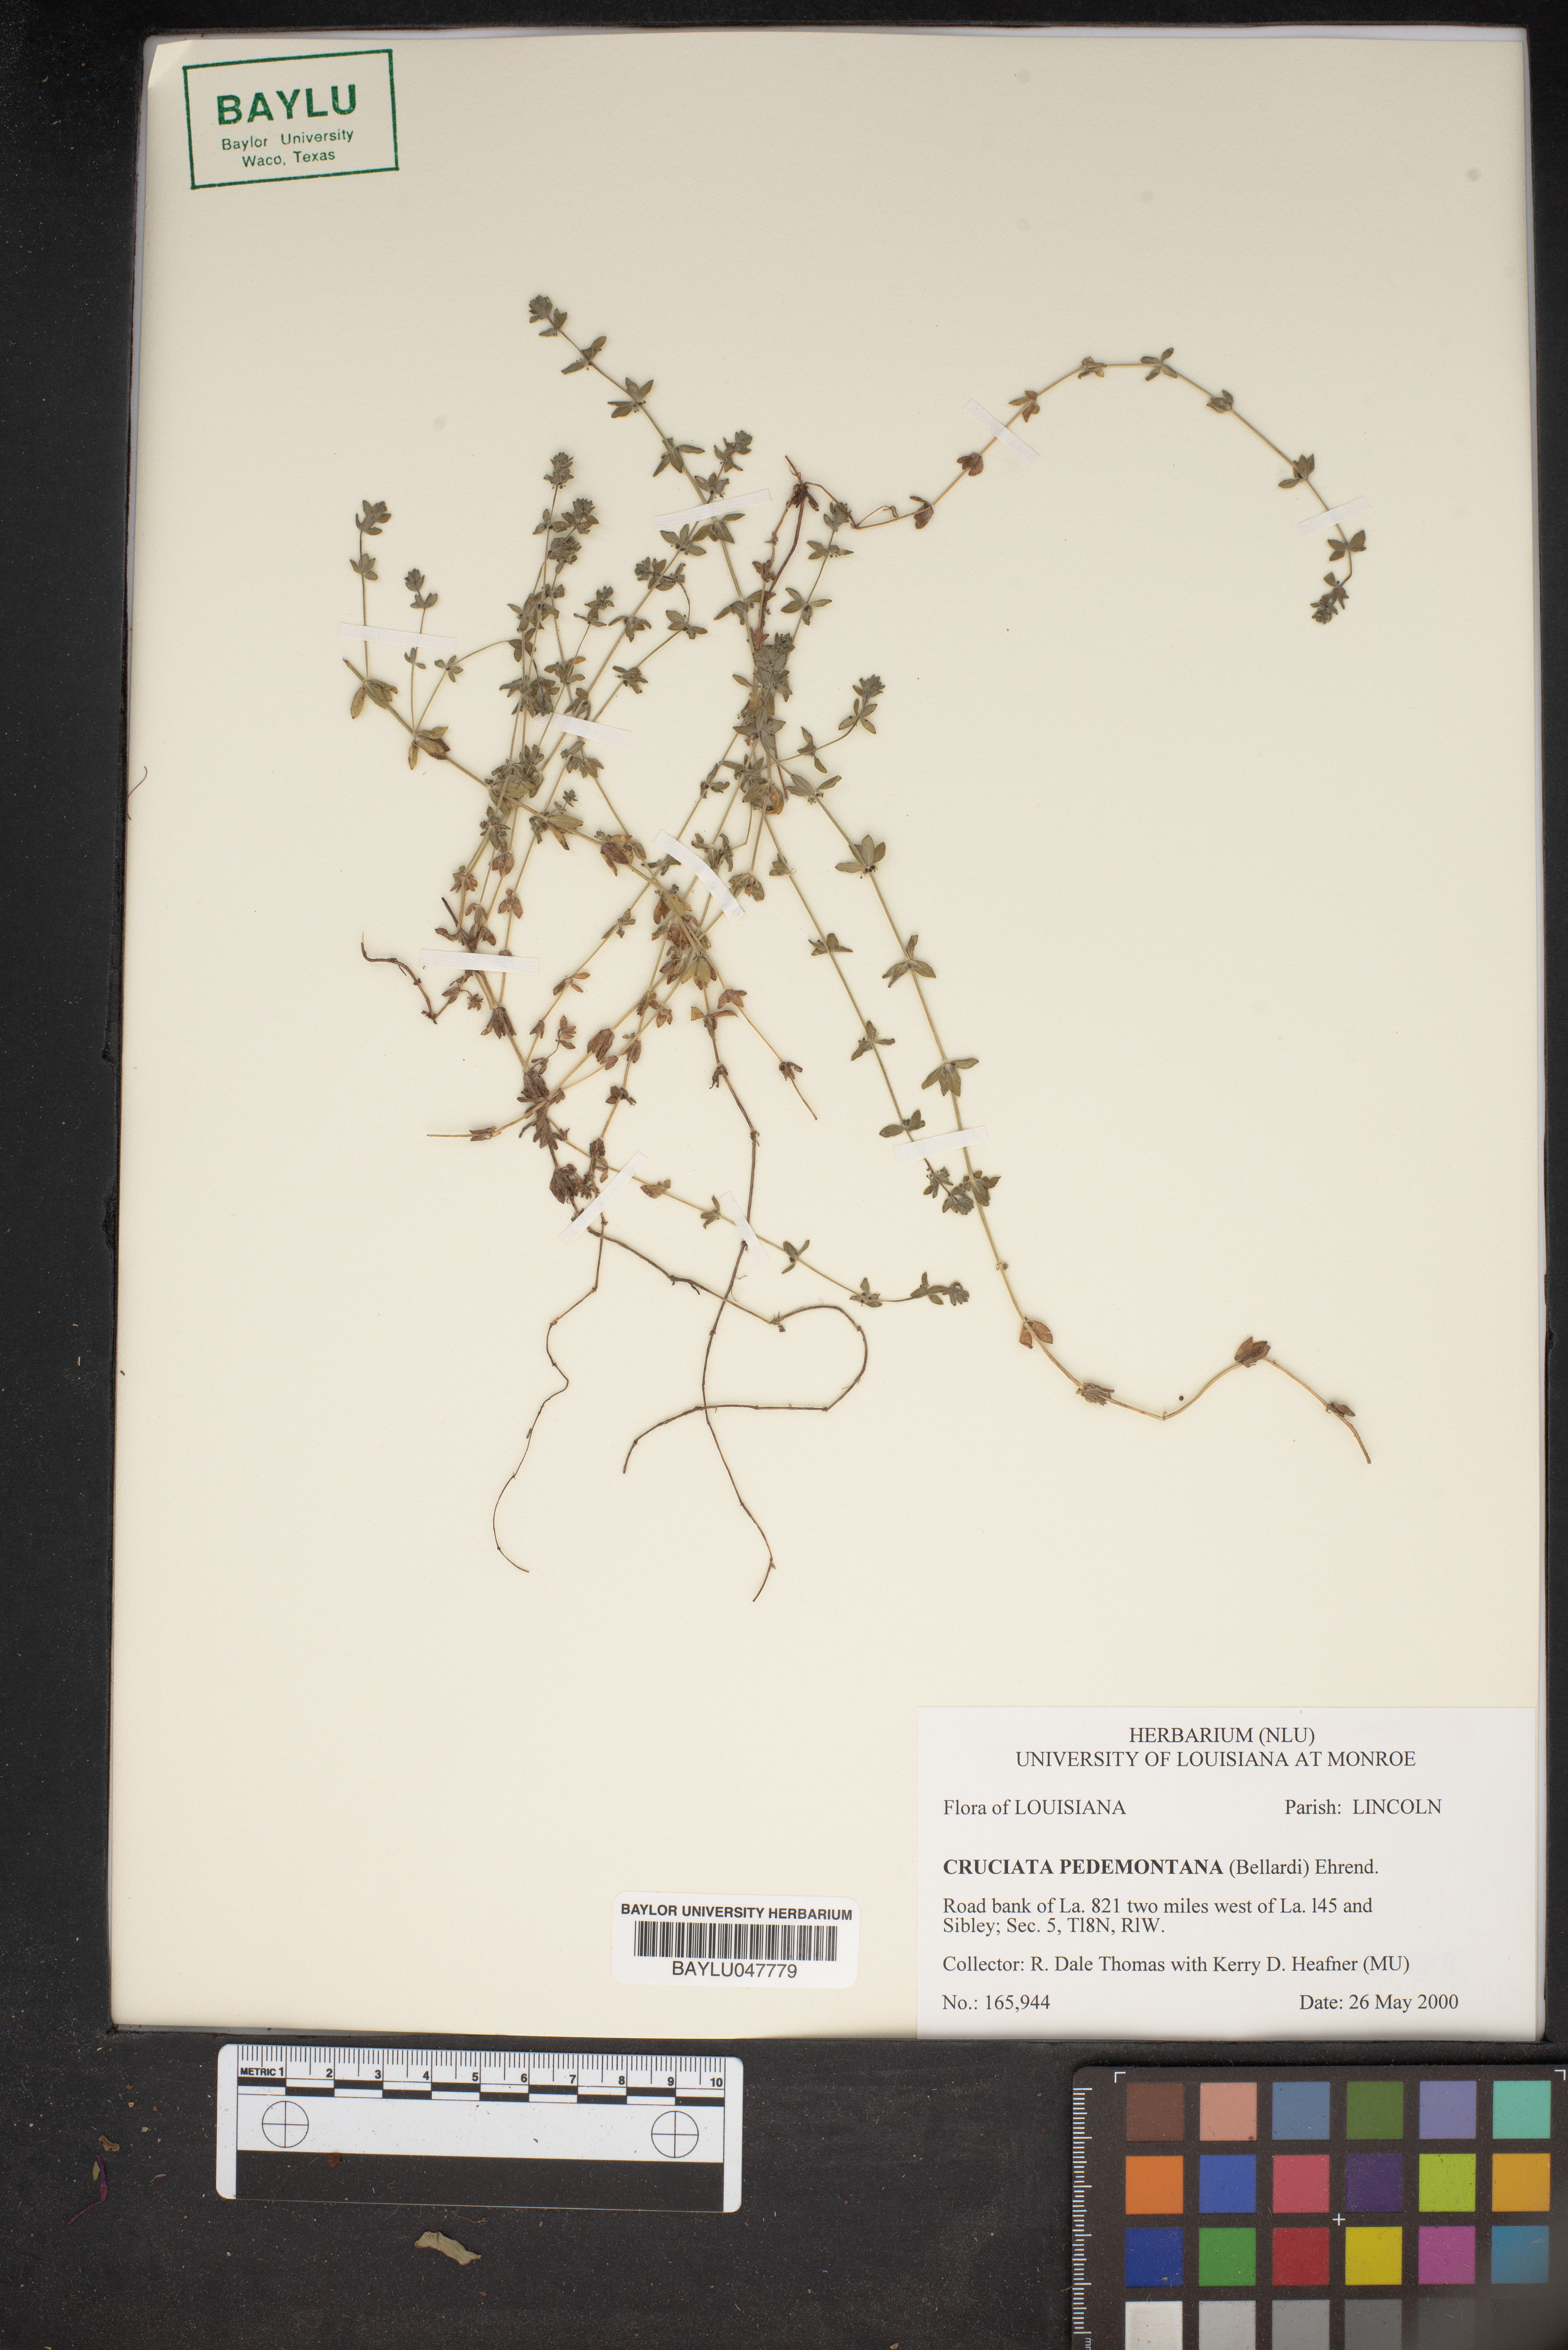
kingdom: Plantae
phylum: Tracheophyta
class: Magnoliopsida
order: Gentianales
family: Rubiaceae
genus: Cruciata
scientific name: Cruciata pedemontana
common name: Piedmont bedstraw
